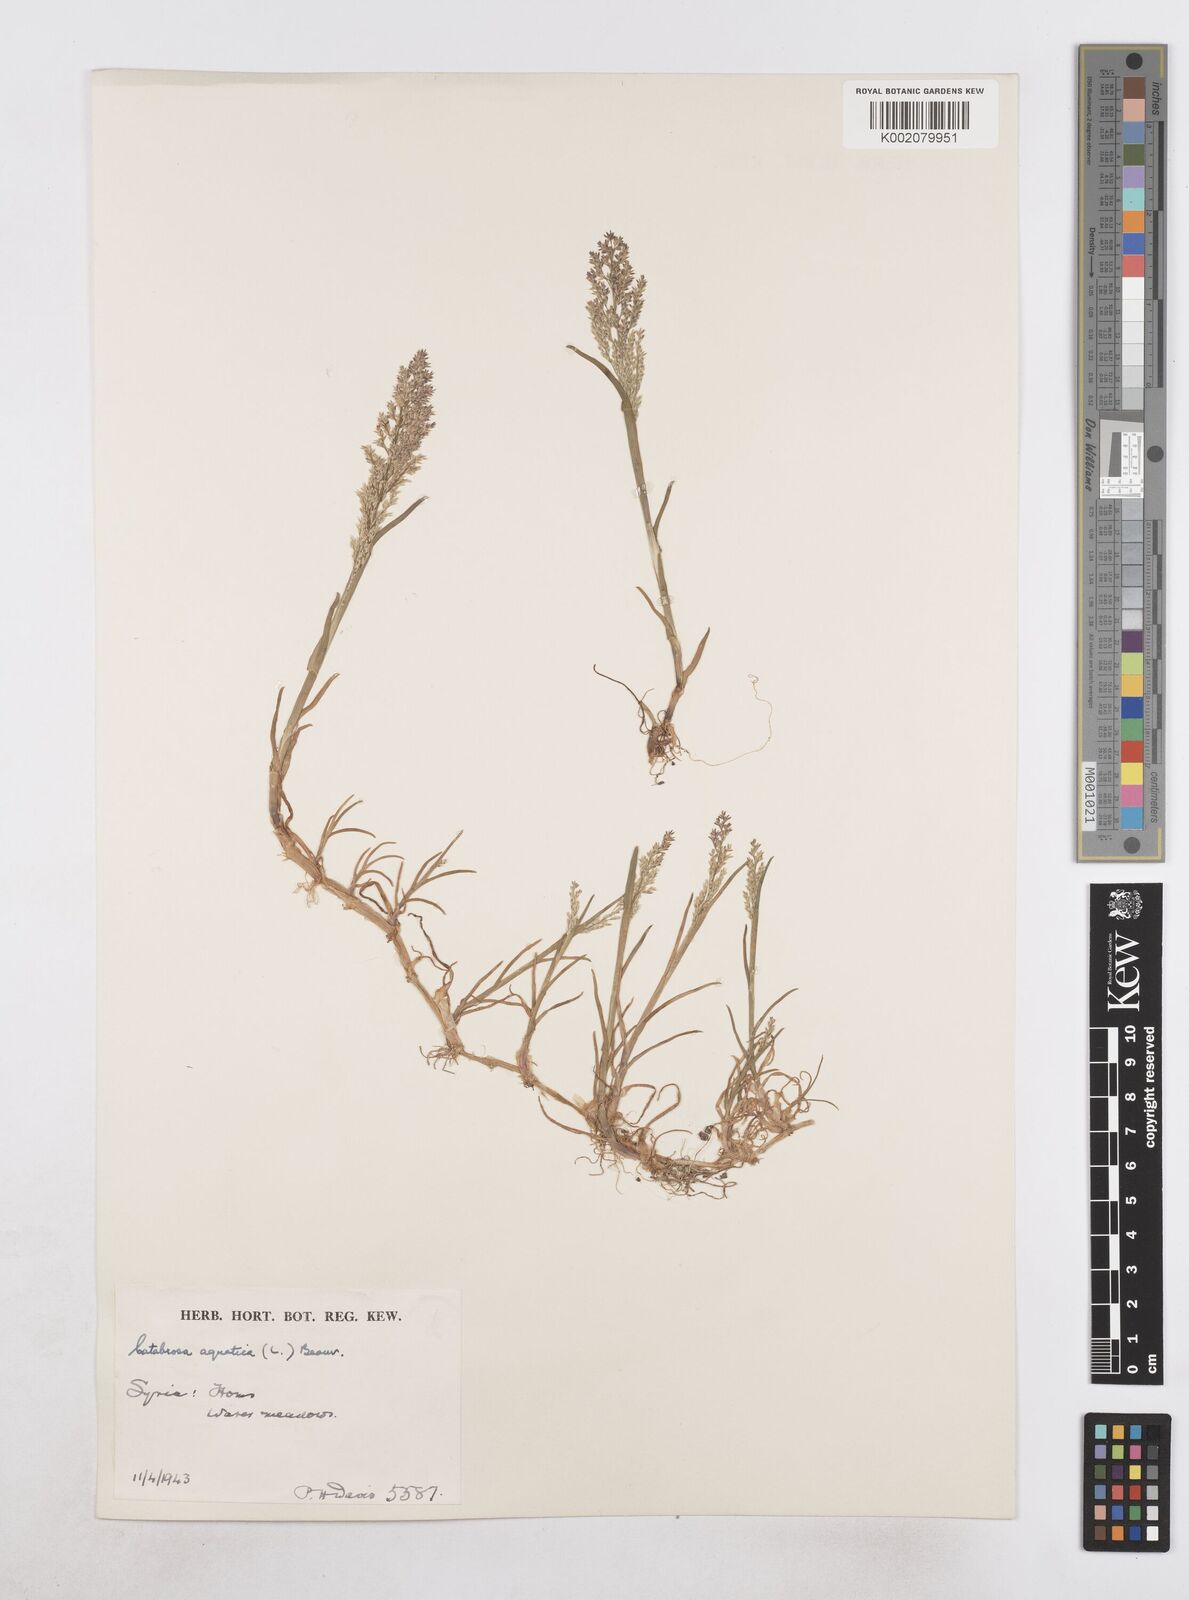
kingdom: Plantae
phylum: Tracheophyta
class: Liliopsida
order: Poales
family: Poaceae
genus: Catabrosa
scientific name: Catabrosa aquatica
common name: Whorl-grass
